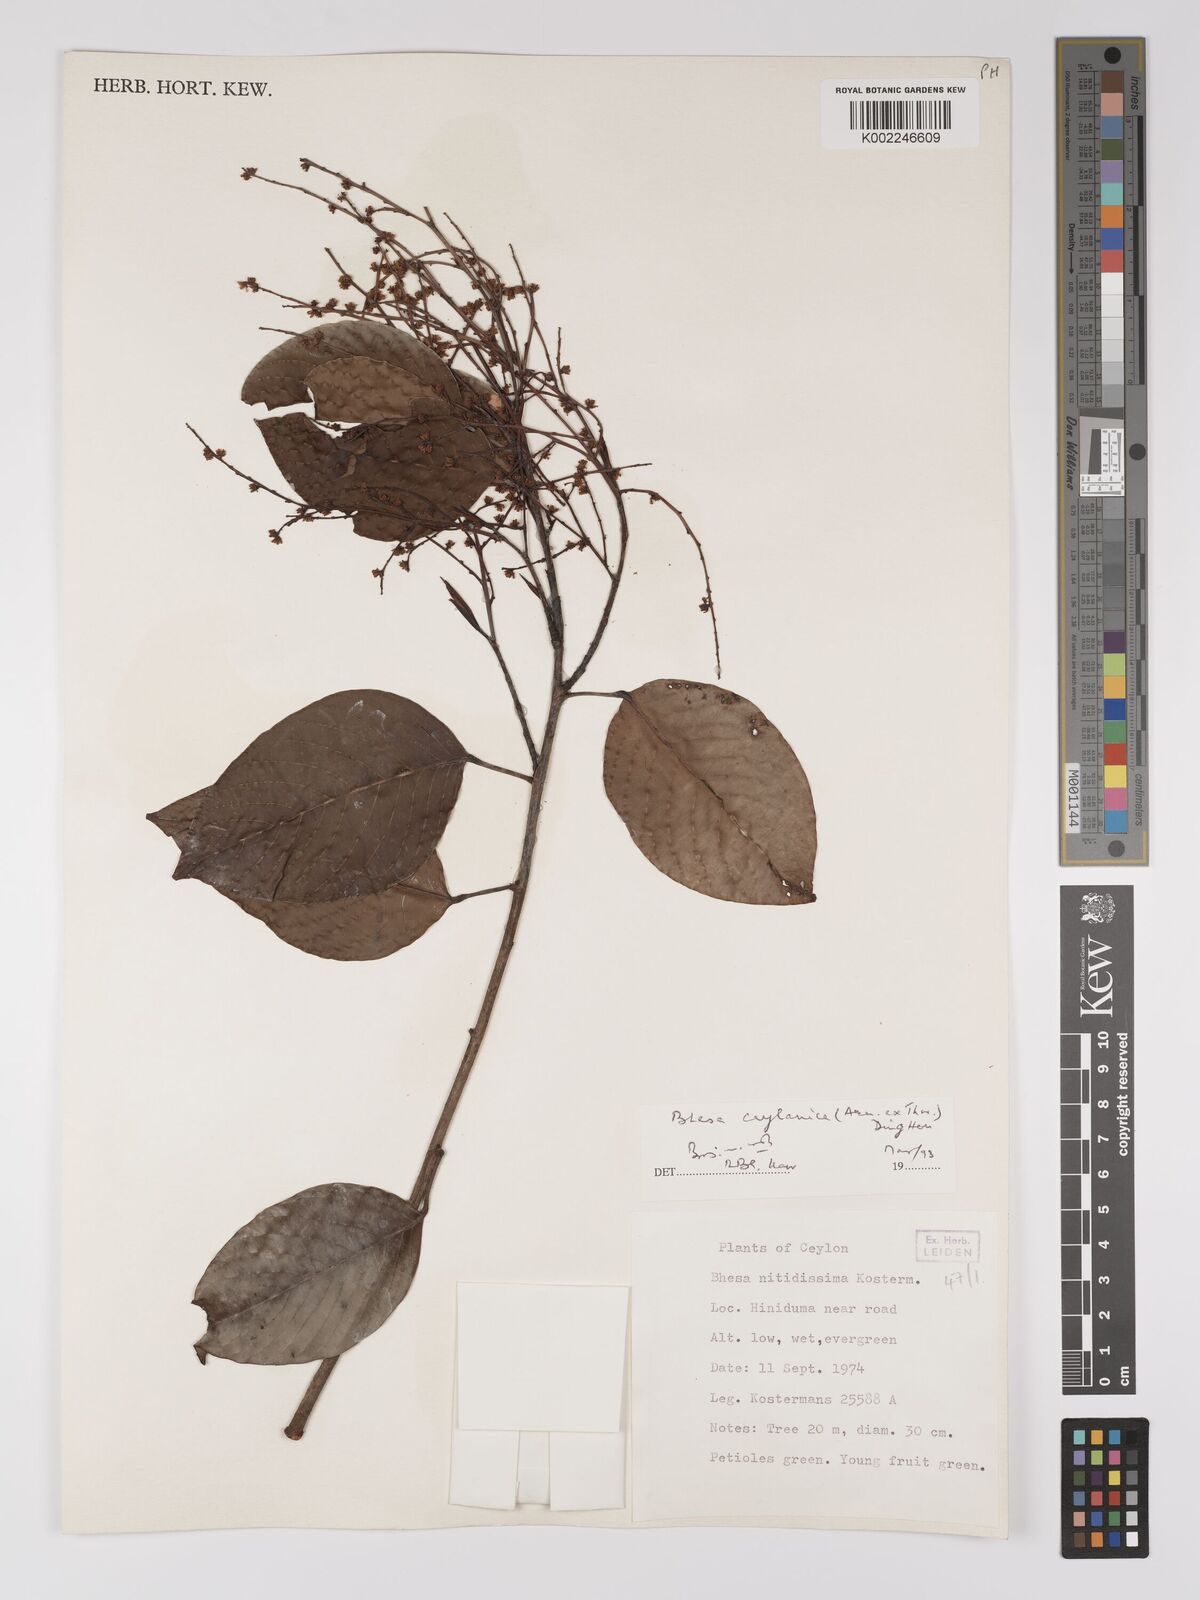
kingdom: Plantae
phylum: Tracheophyta
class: Magnoliopsida
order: Malpighiales
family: Centroplacaceae
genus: Bhesa
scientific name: Bhesa ceylanica
